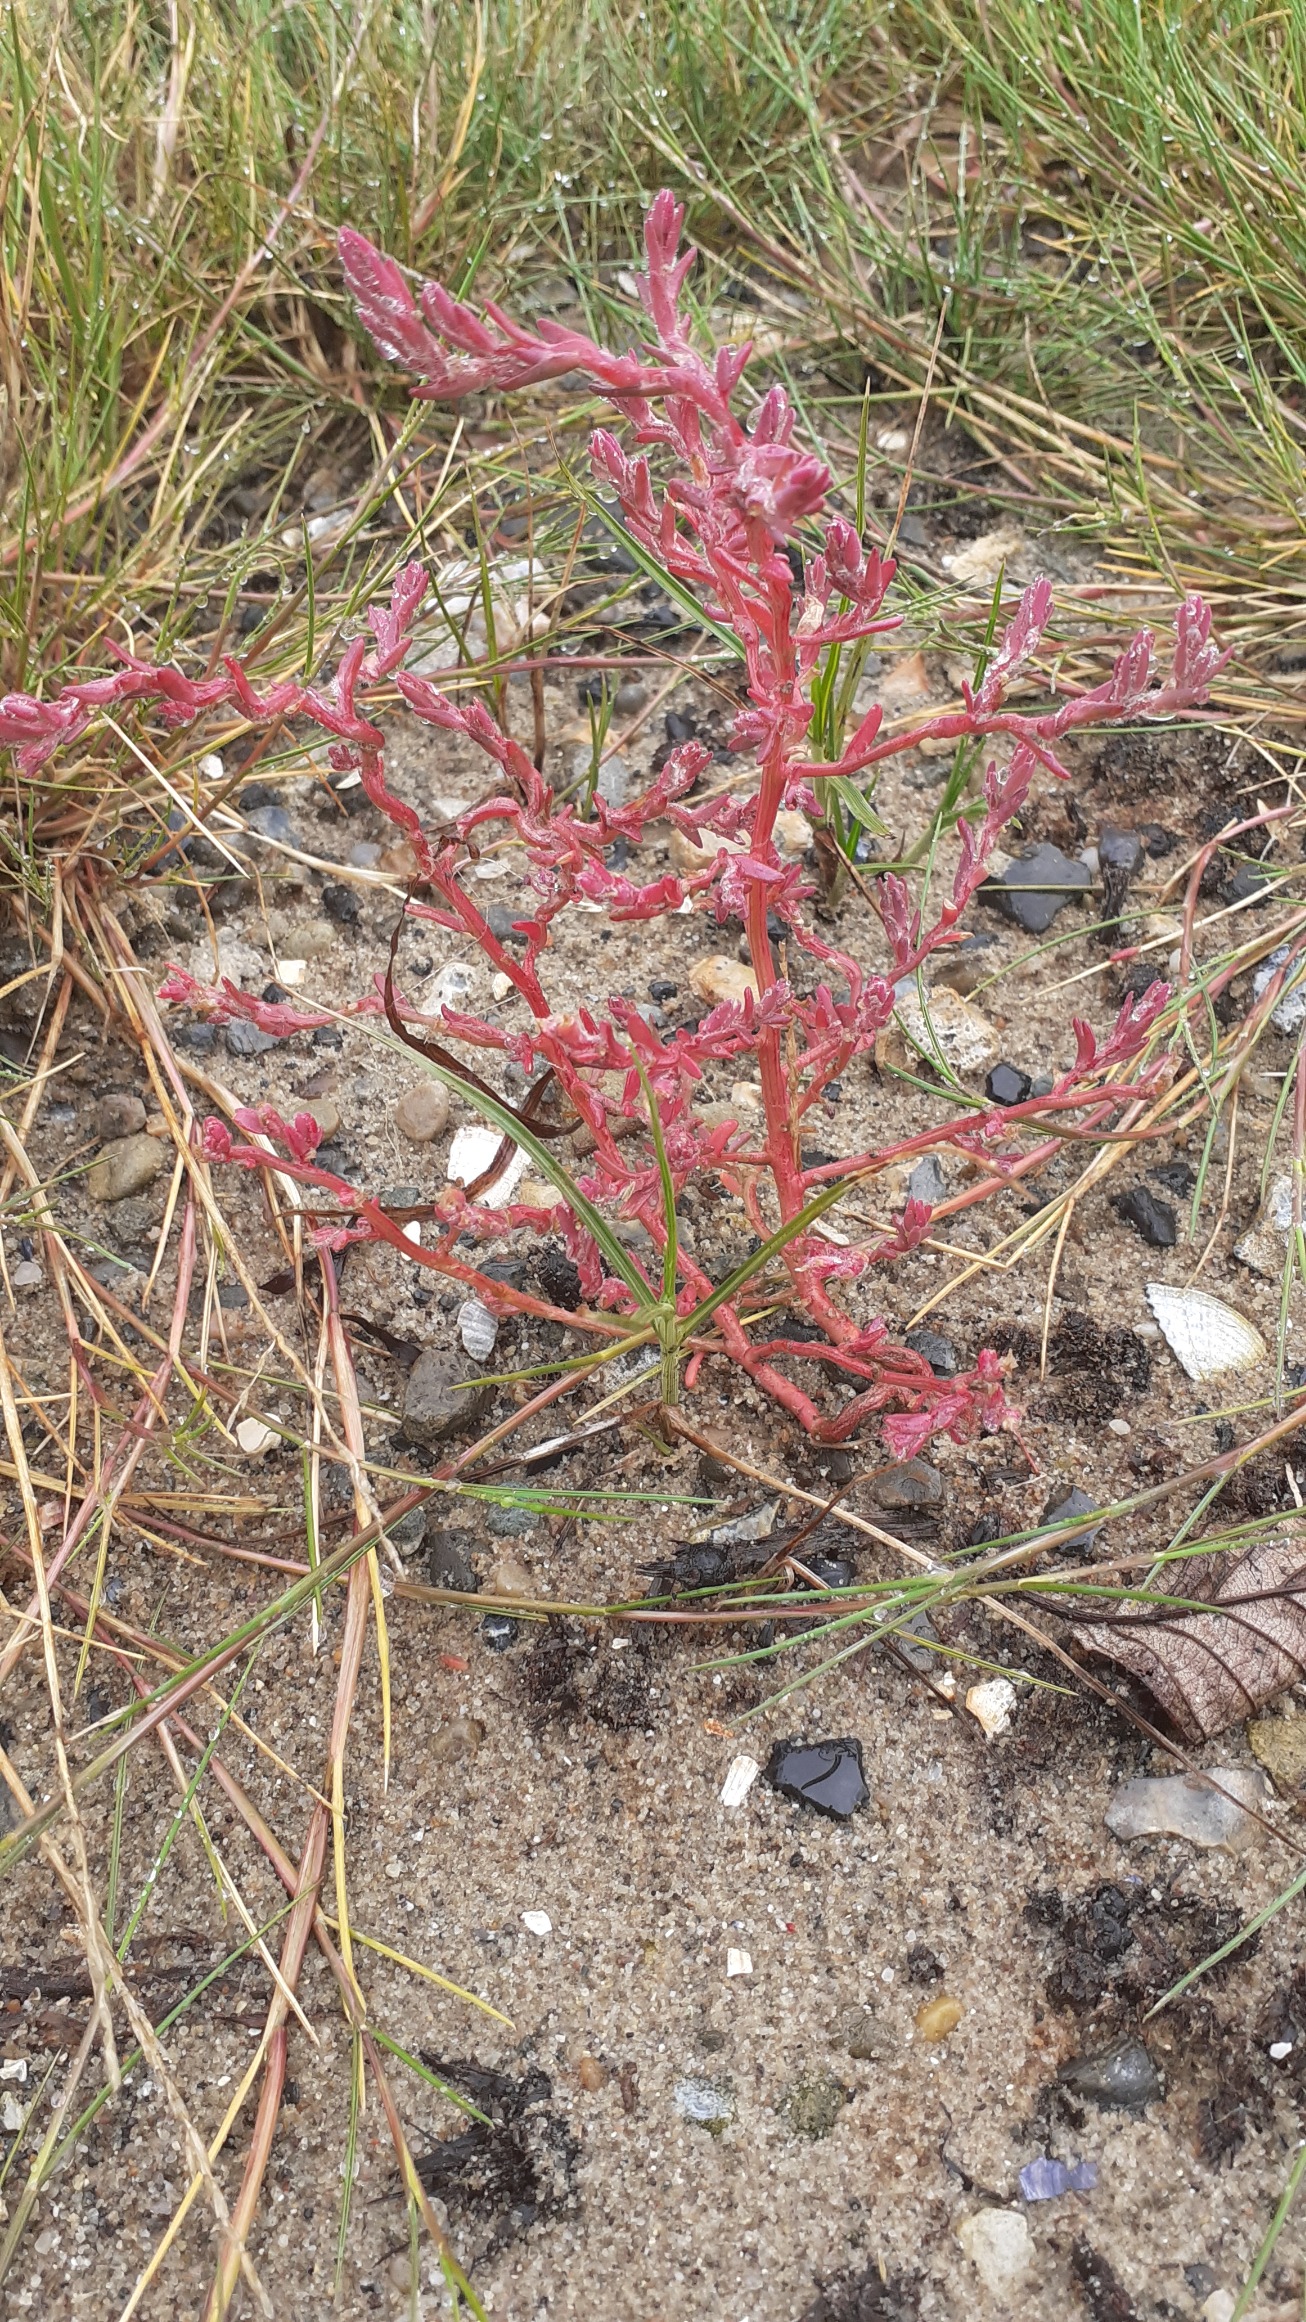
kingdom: Plantae
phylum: Tracheophyta
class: Magnoliopsida
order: Caryophyllales
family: Amaranthaceae
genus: Spirobassia
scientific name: Spirobassia hirsuta
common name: Tangurt
